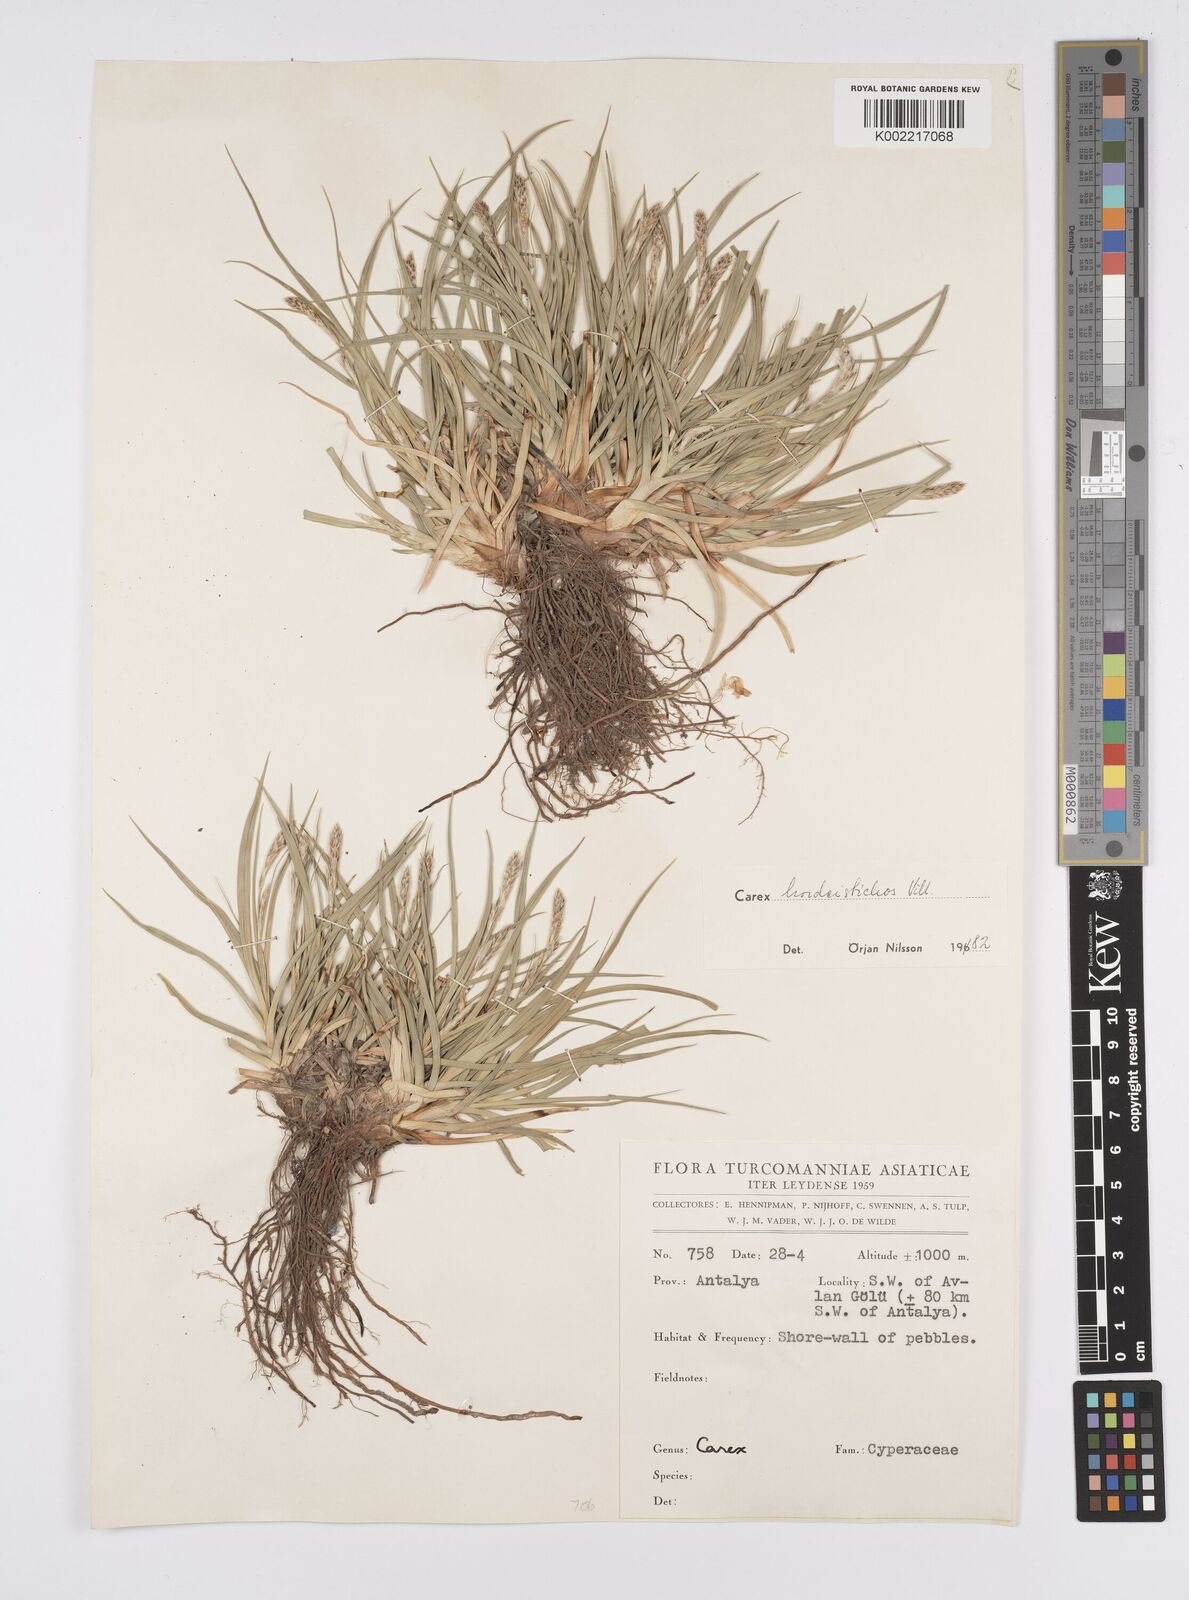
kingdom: Plantae
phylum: Tracheophyta
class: Liliopsida
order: Poales
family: Cyperaceae
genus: Carex
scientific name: Carex hordeistichos
